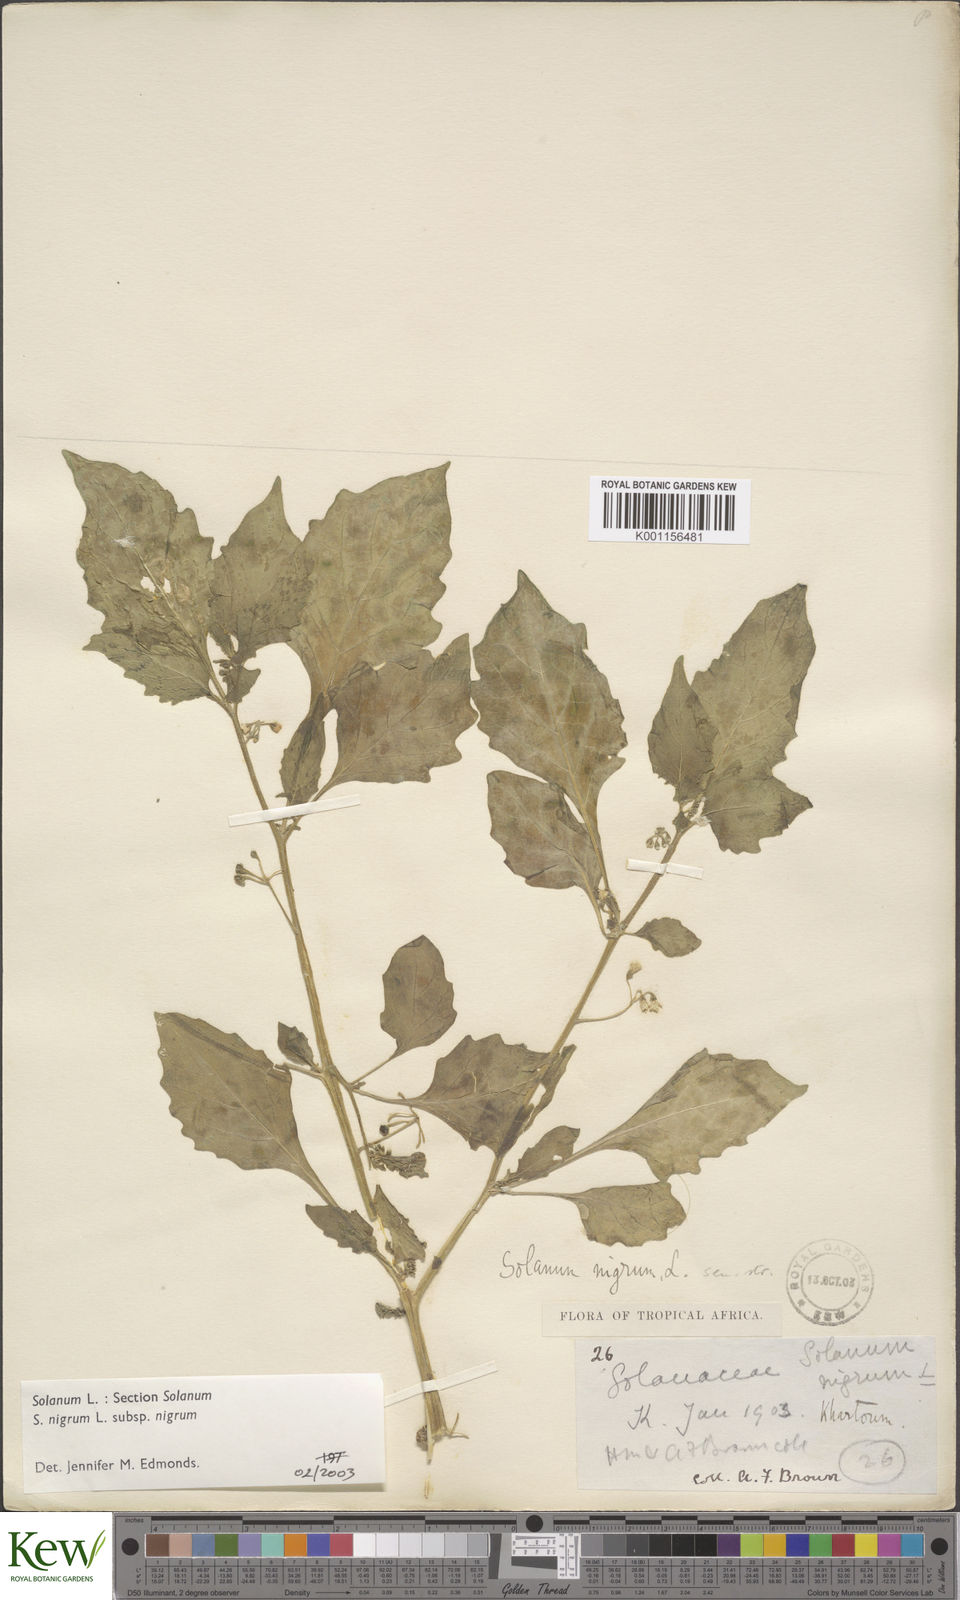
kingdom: Plantae
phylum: Tracheophyta
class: Magnoliopsida
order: Solanales
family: Solanaceae
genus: Solanum
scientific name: Solanum nigrum
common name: Black nightshade
